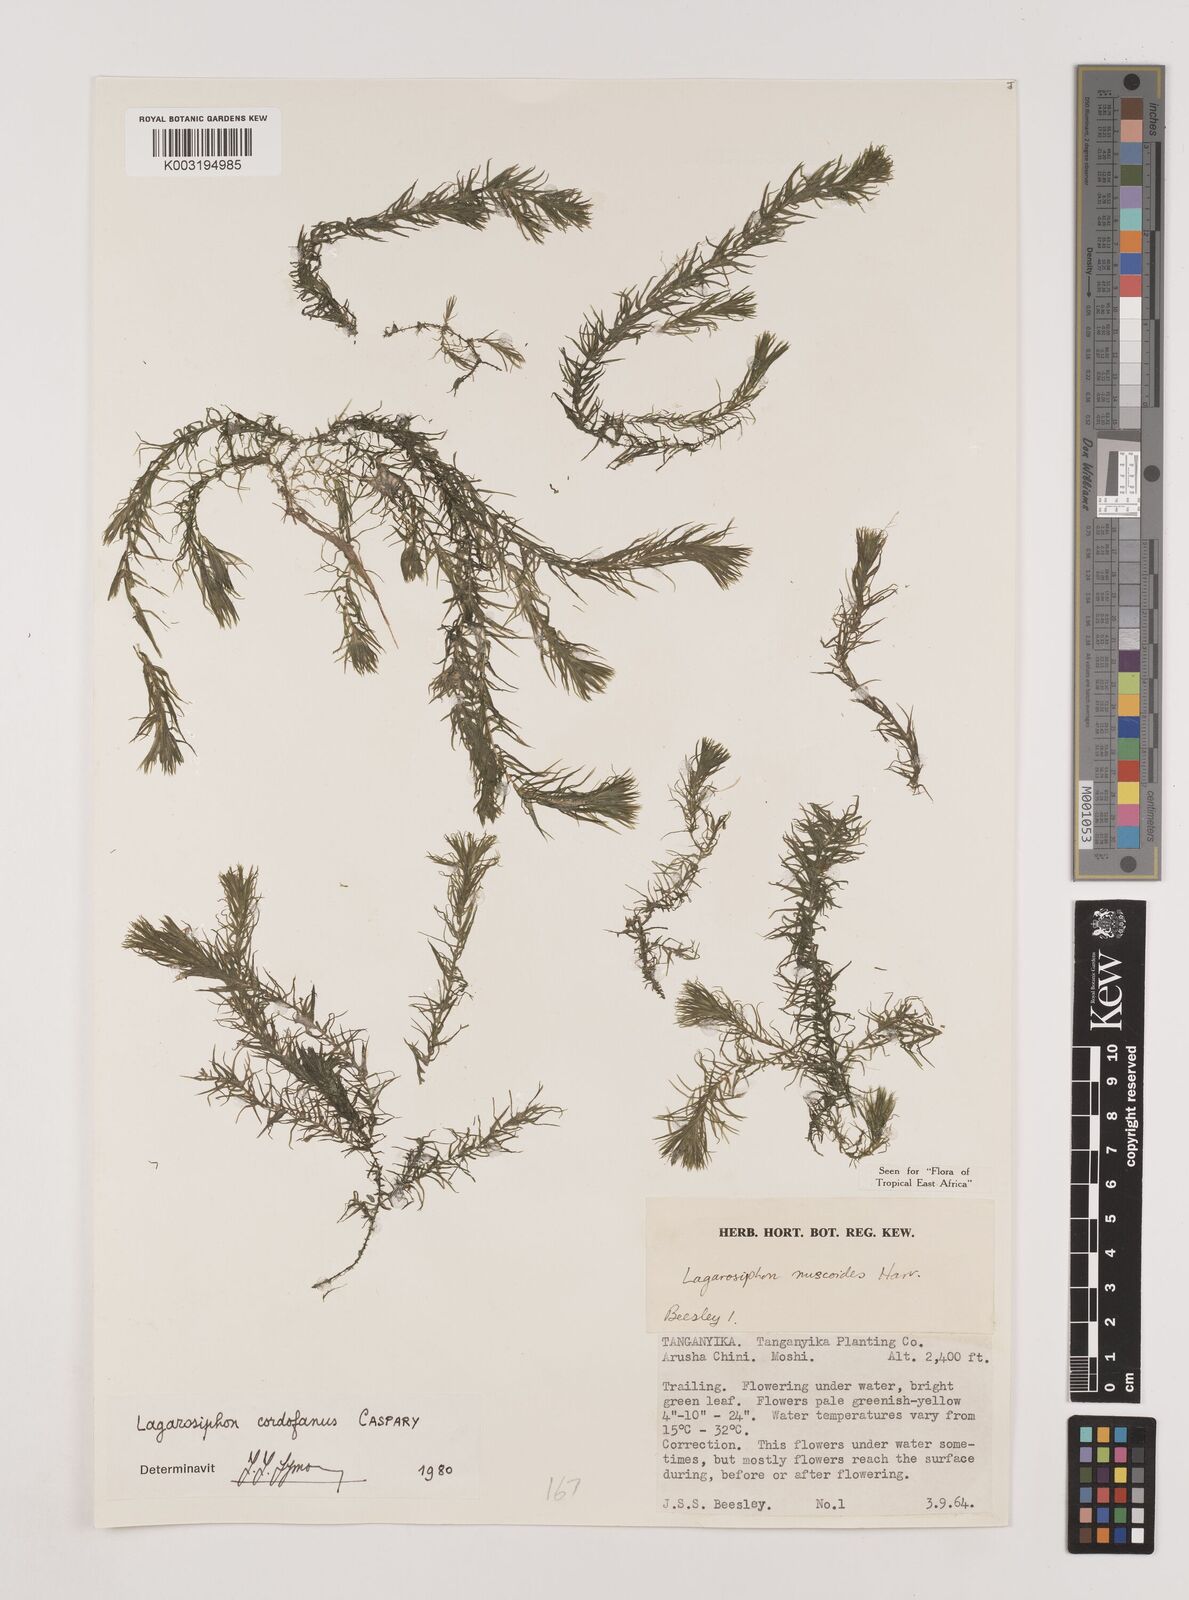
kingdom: Plantae
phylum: Tracheophyta
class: Liliopsida
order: Alismatales
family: Hydrocharitaceae
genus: Lagarosiphon
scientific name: Lagarosiphon cordofanus
